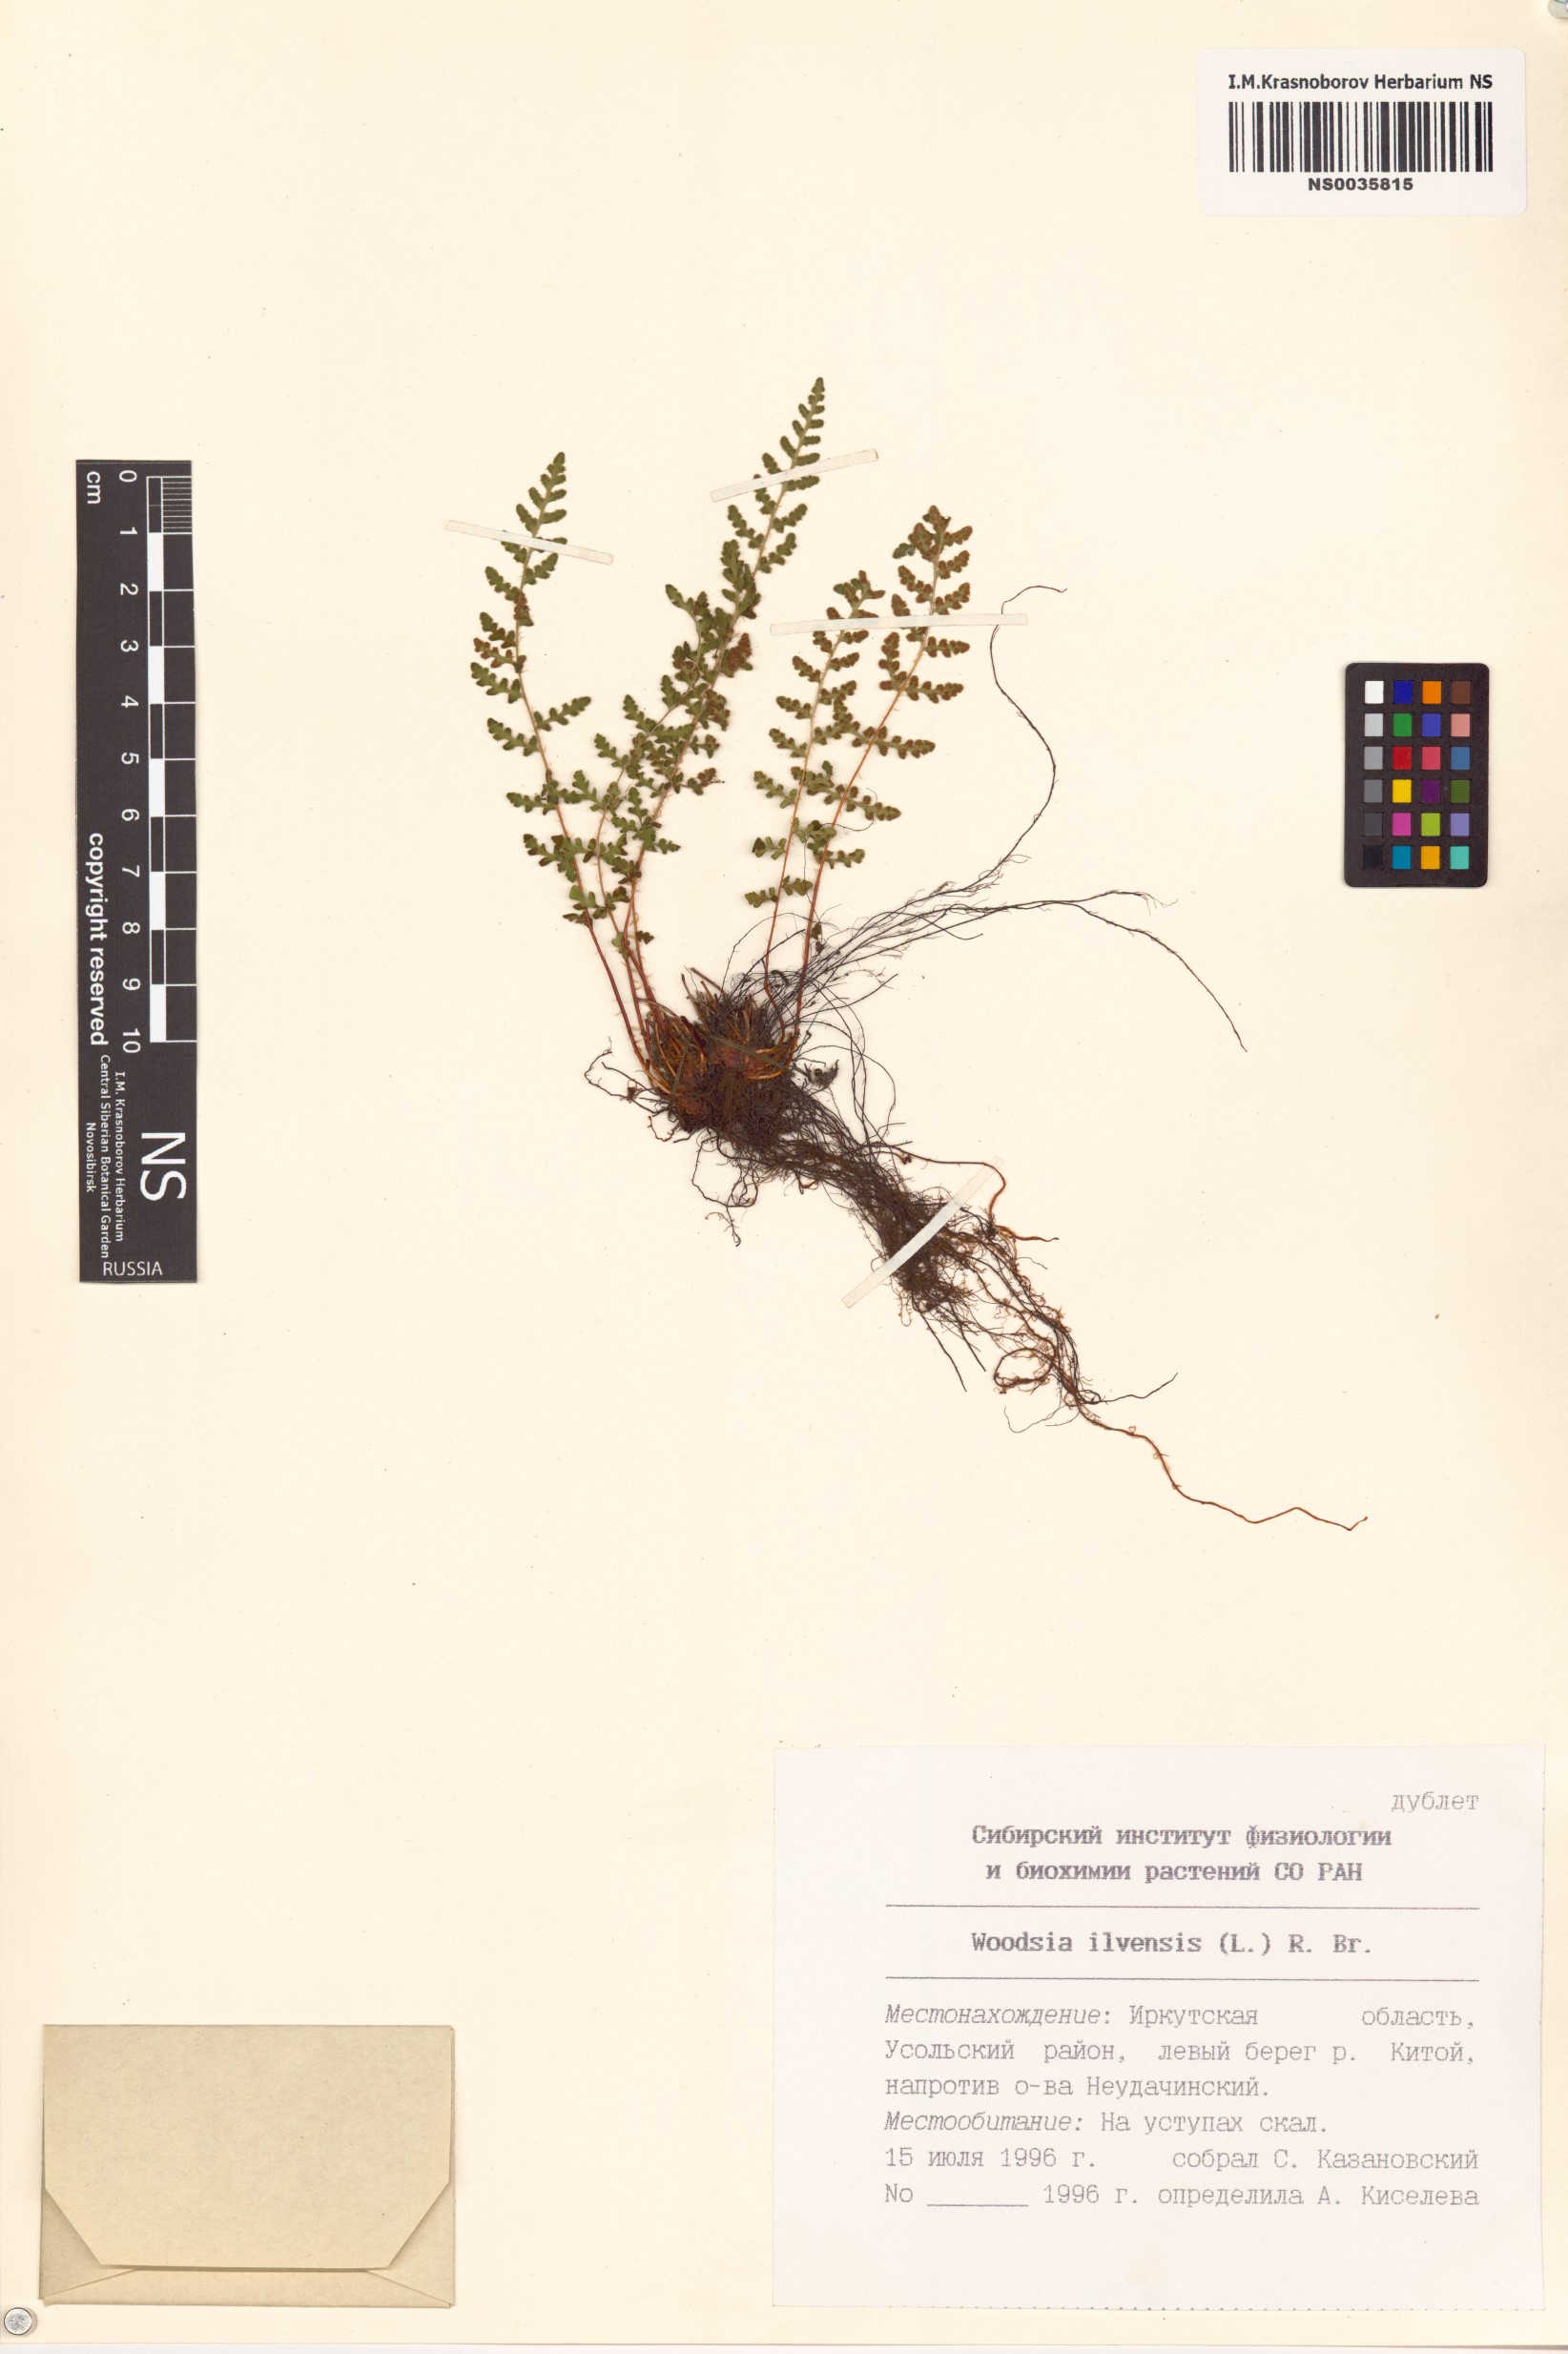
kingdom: Plantae
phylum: Tracheophyta
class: Polypodiopsida
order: Polypodiales
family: Woodsiaceae
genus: Woodsia
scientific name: Woodsia ilvensis
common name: Fragrant woodsia
